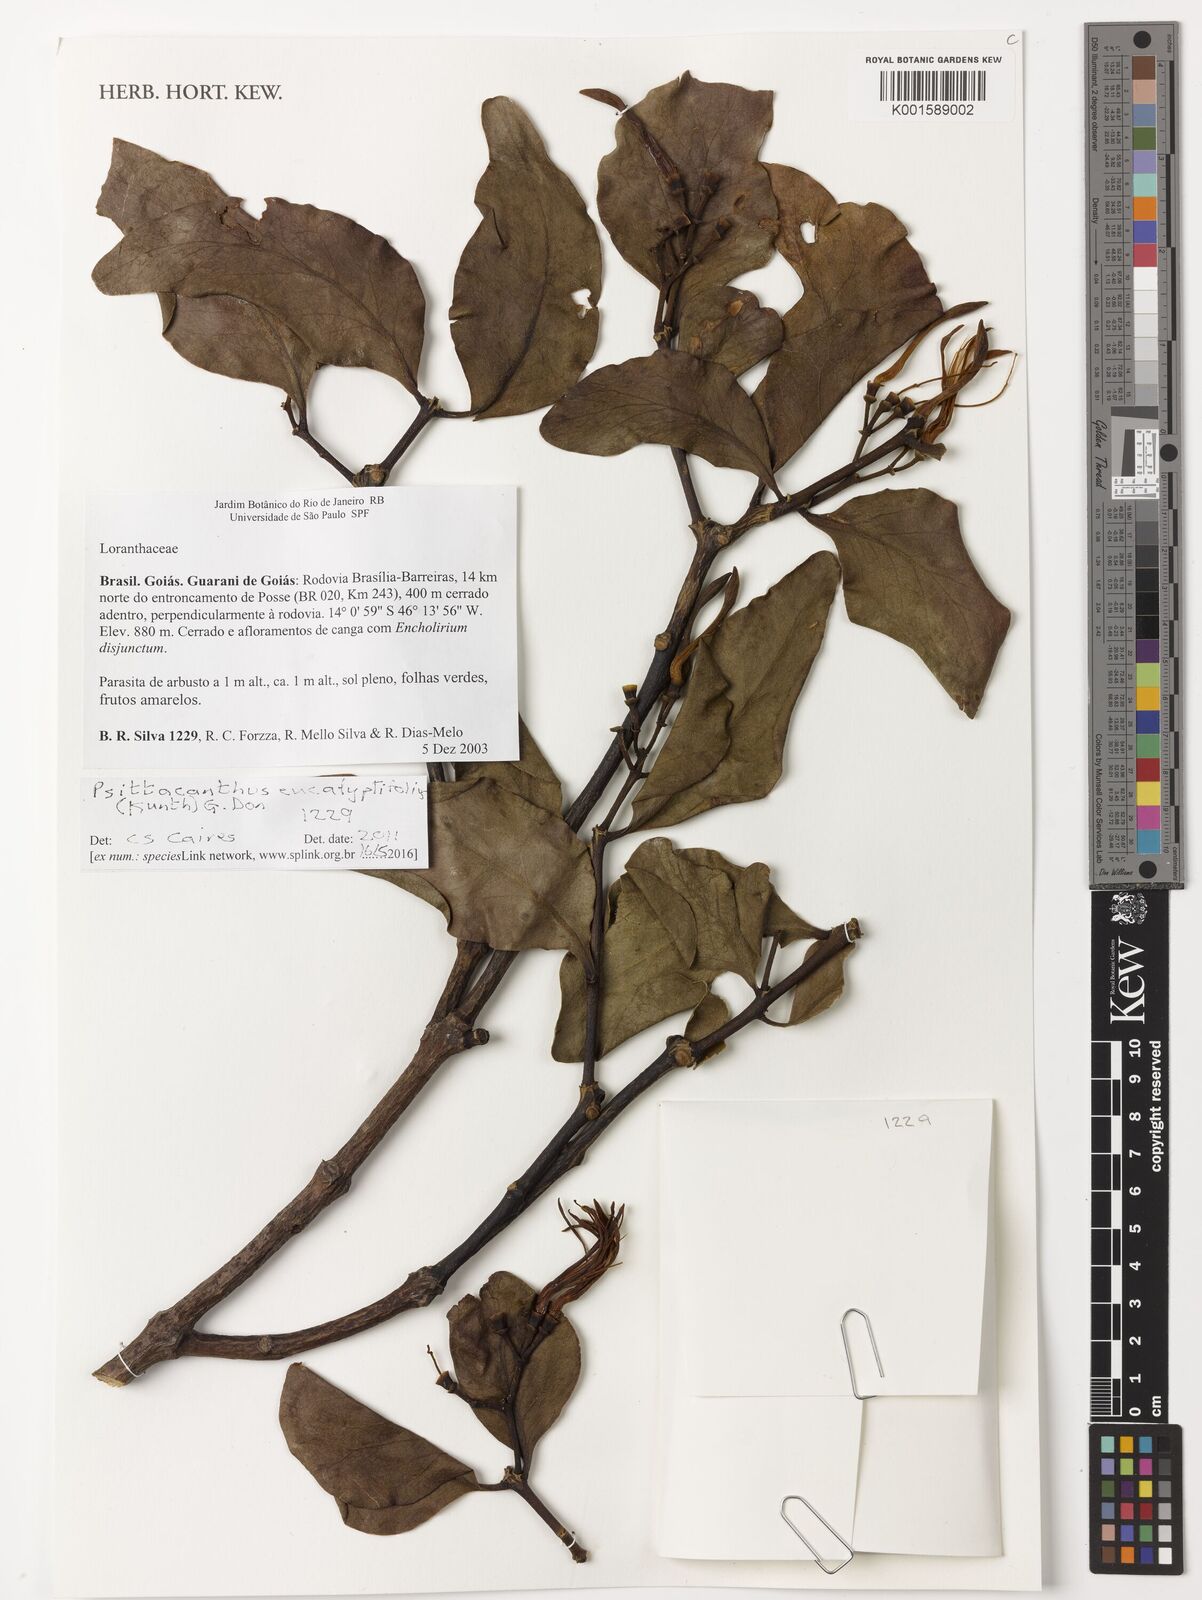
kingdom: Plantae
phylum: Tracheophyta
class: Magnoliopsida
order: Santalales
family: Loranthaceae
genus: Psittacanthus
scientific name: Psittacanthus eucalyptifolius
